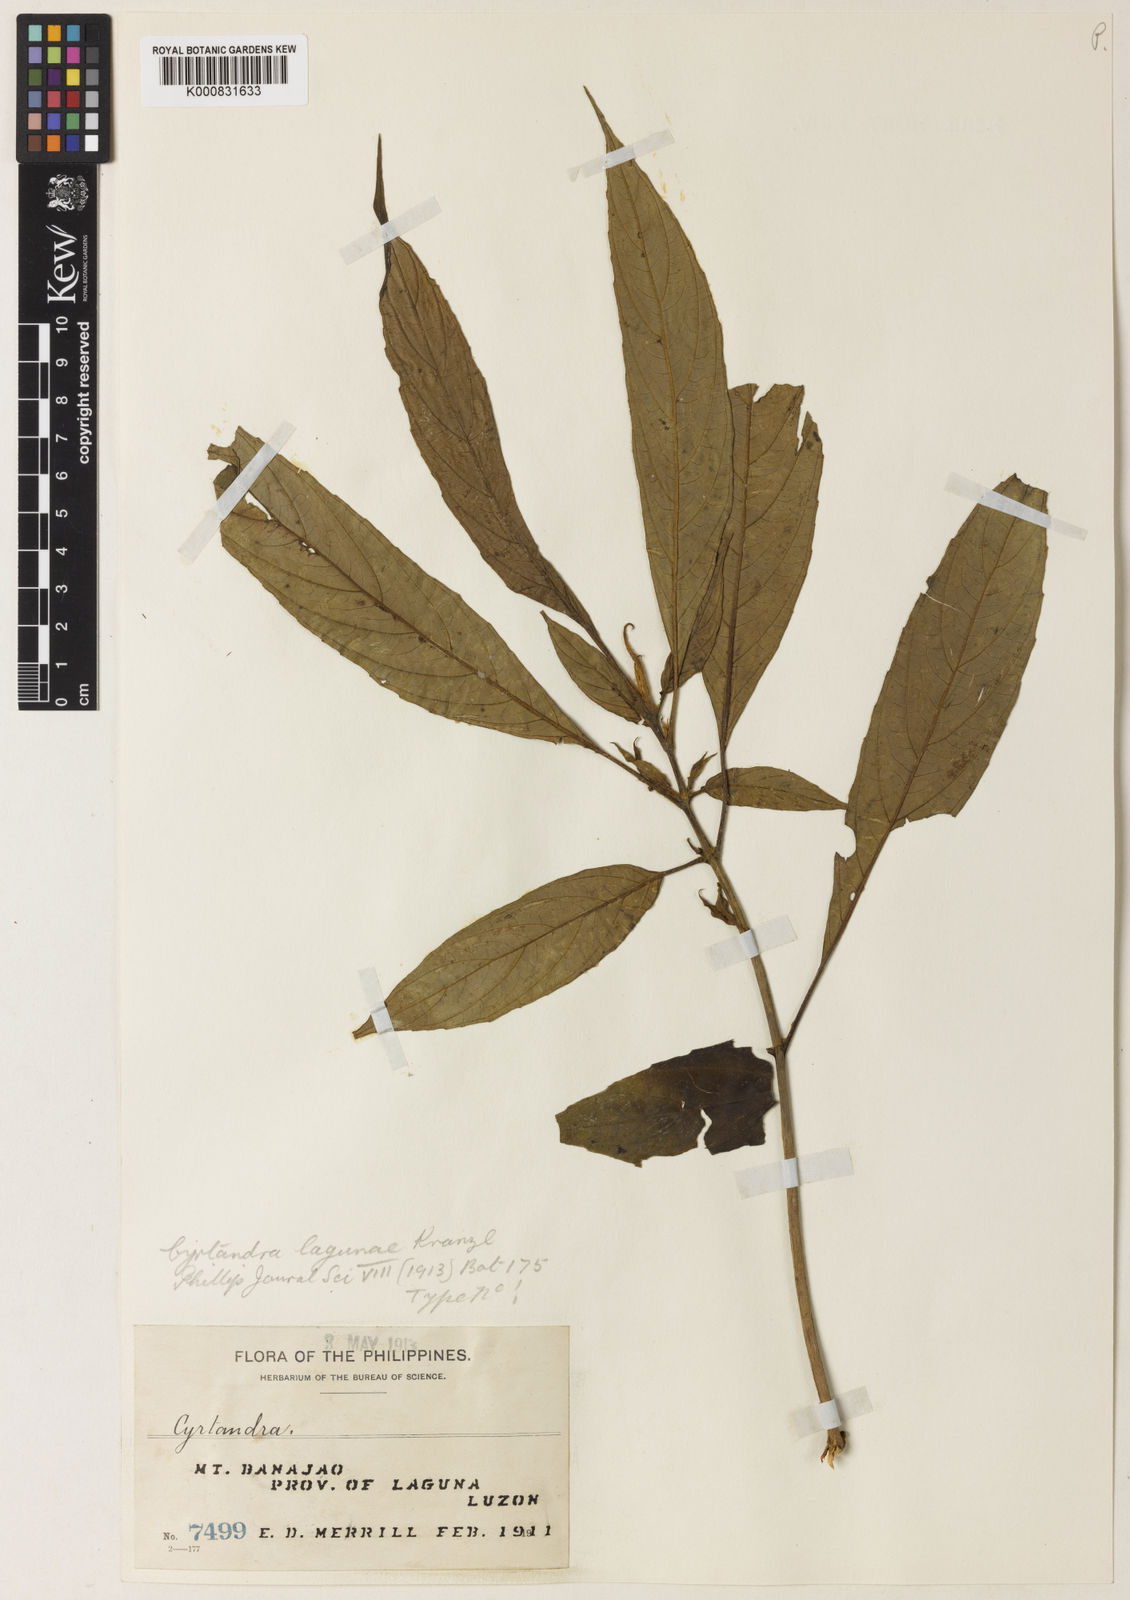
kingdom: Plantae
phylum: Tracheophyta
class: Magnoliopsida
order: Lamiales
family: Gesneriaceae
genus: Cyrtandra
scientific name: Cyrtandra lagunae
